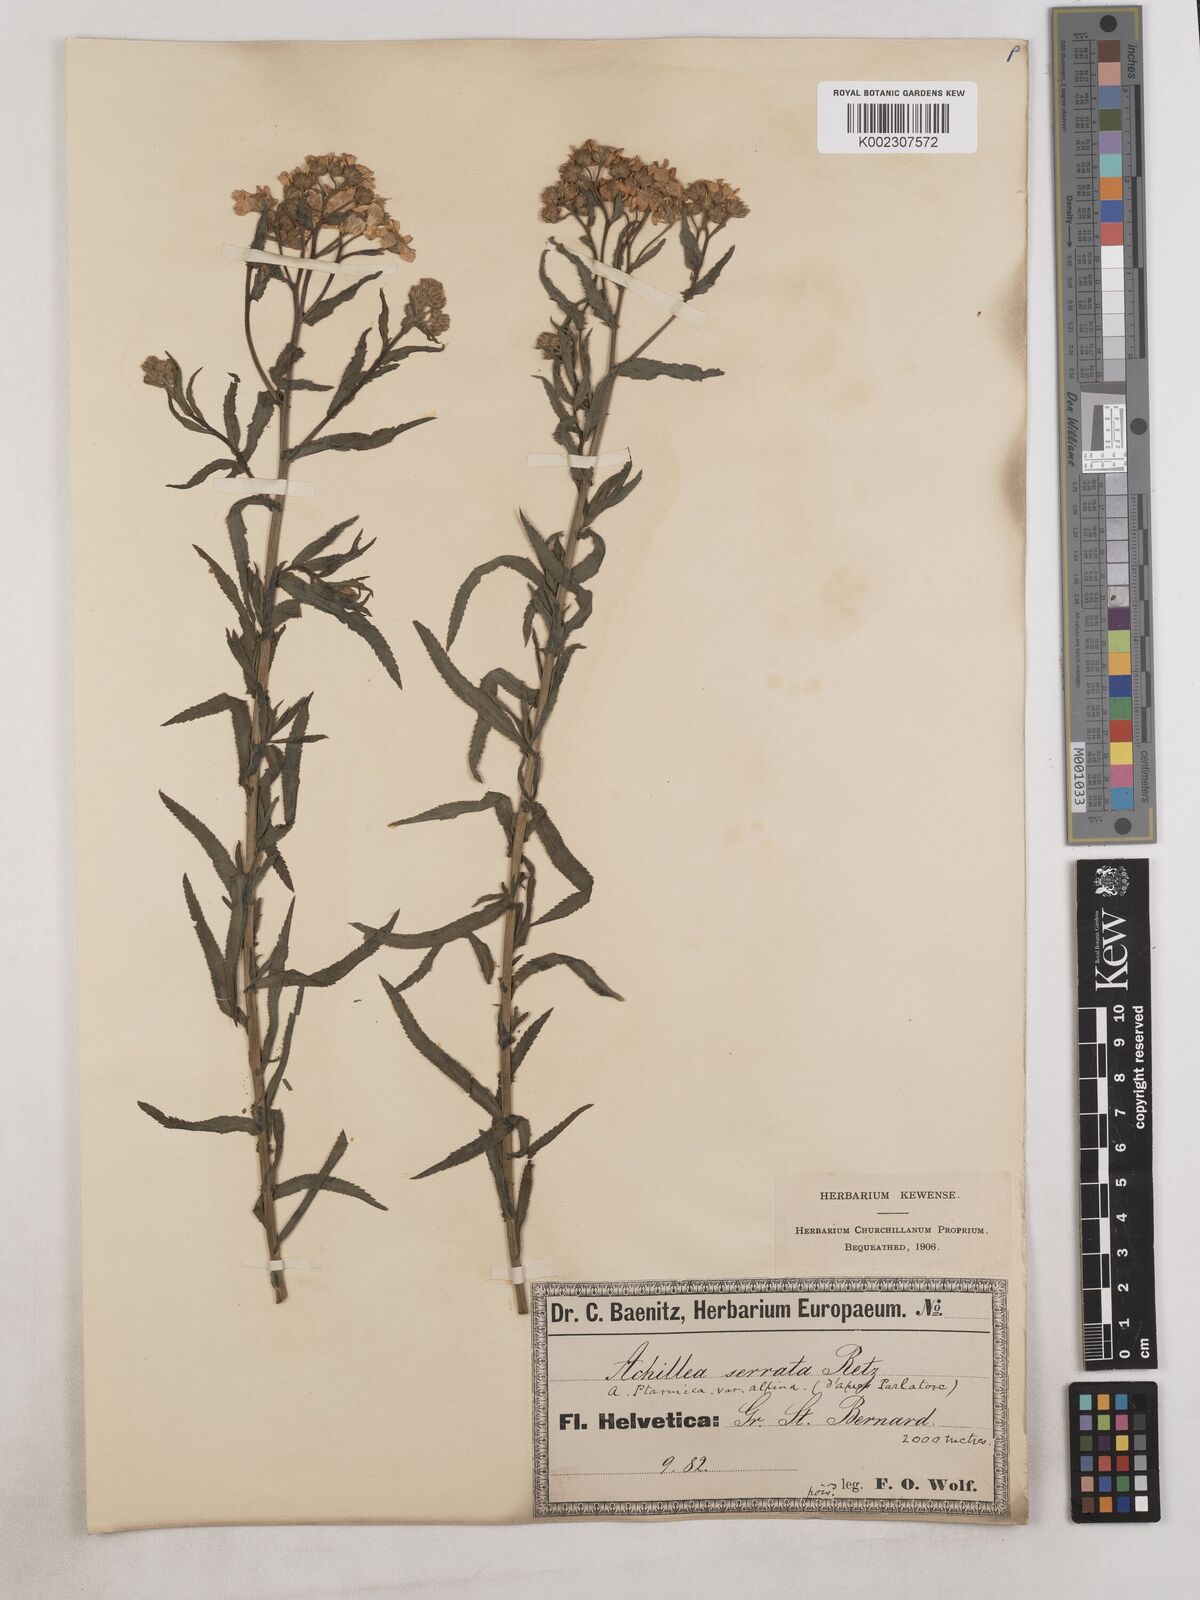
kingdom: Plantae
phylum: Tracheophyta
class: Magnoliopsida
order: Asterales
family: Asteraceae
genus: Achillea
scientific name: Achillea serrata
